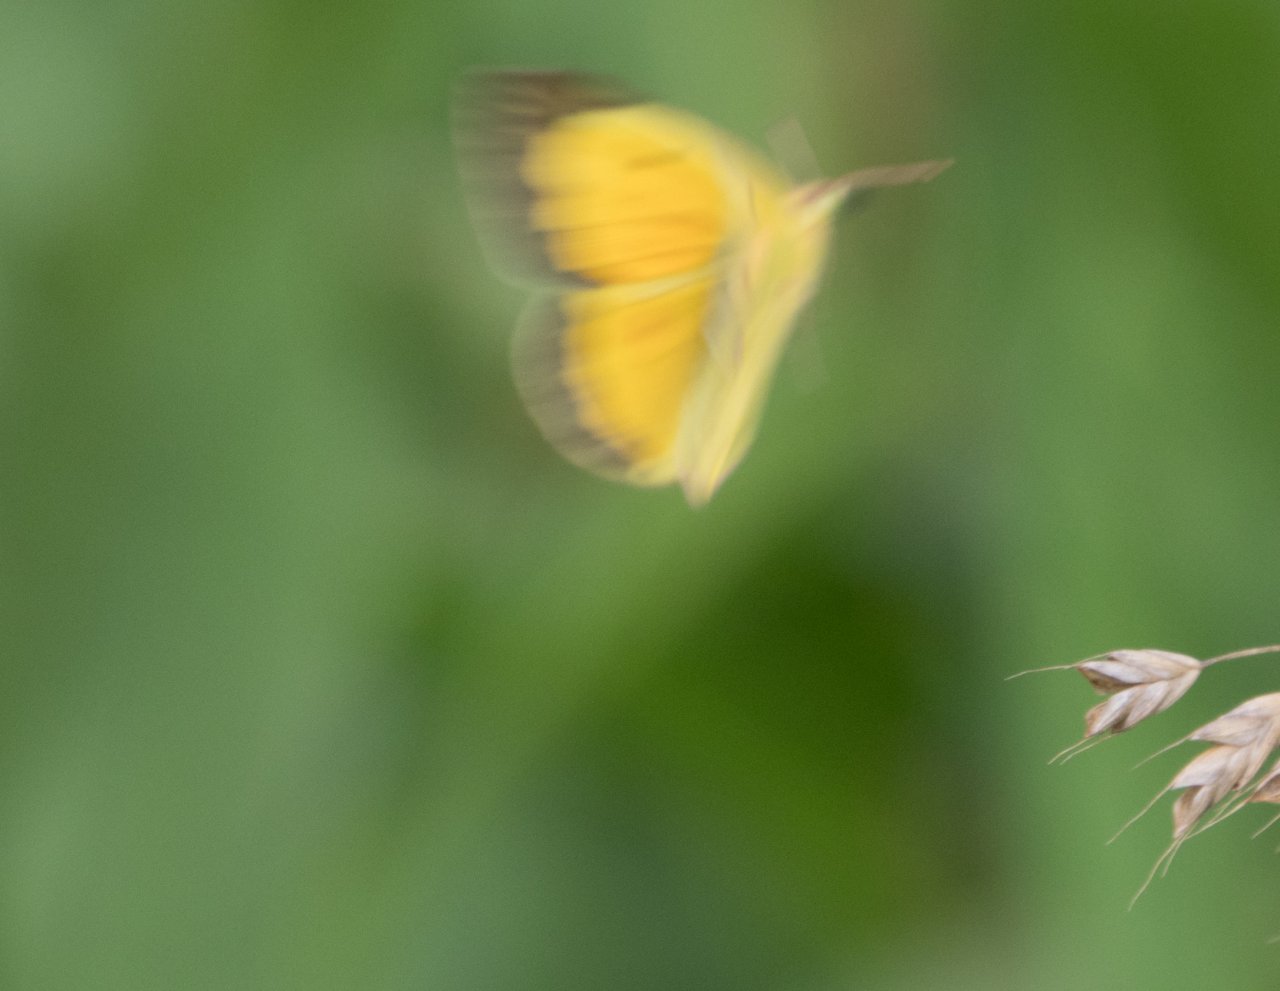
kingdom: Animalia
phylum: Arthropoda
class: Insecta
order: Lepidoptera
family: Pieridae
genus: Colias
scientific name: Colias eurytheme
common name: Orange Sulphur
